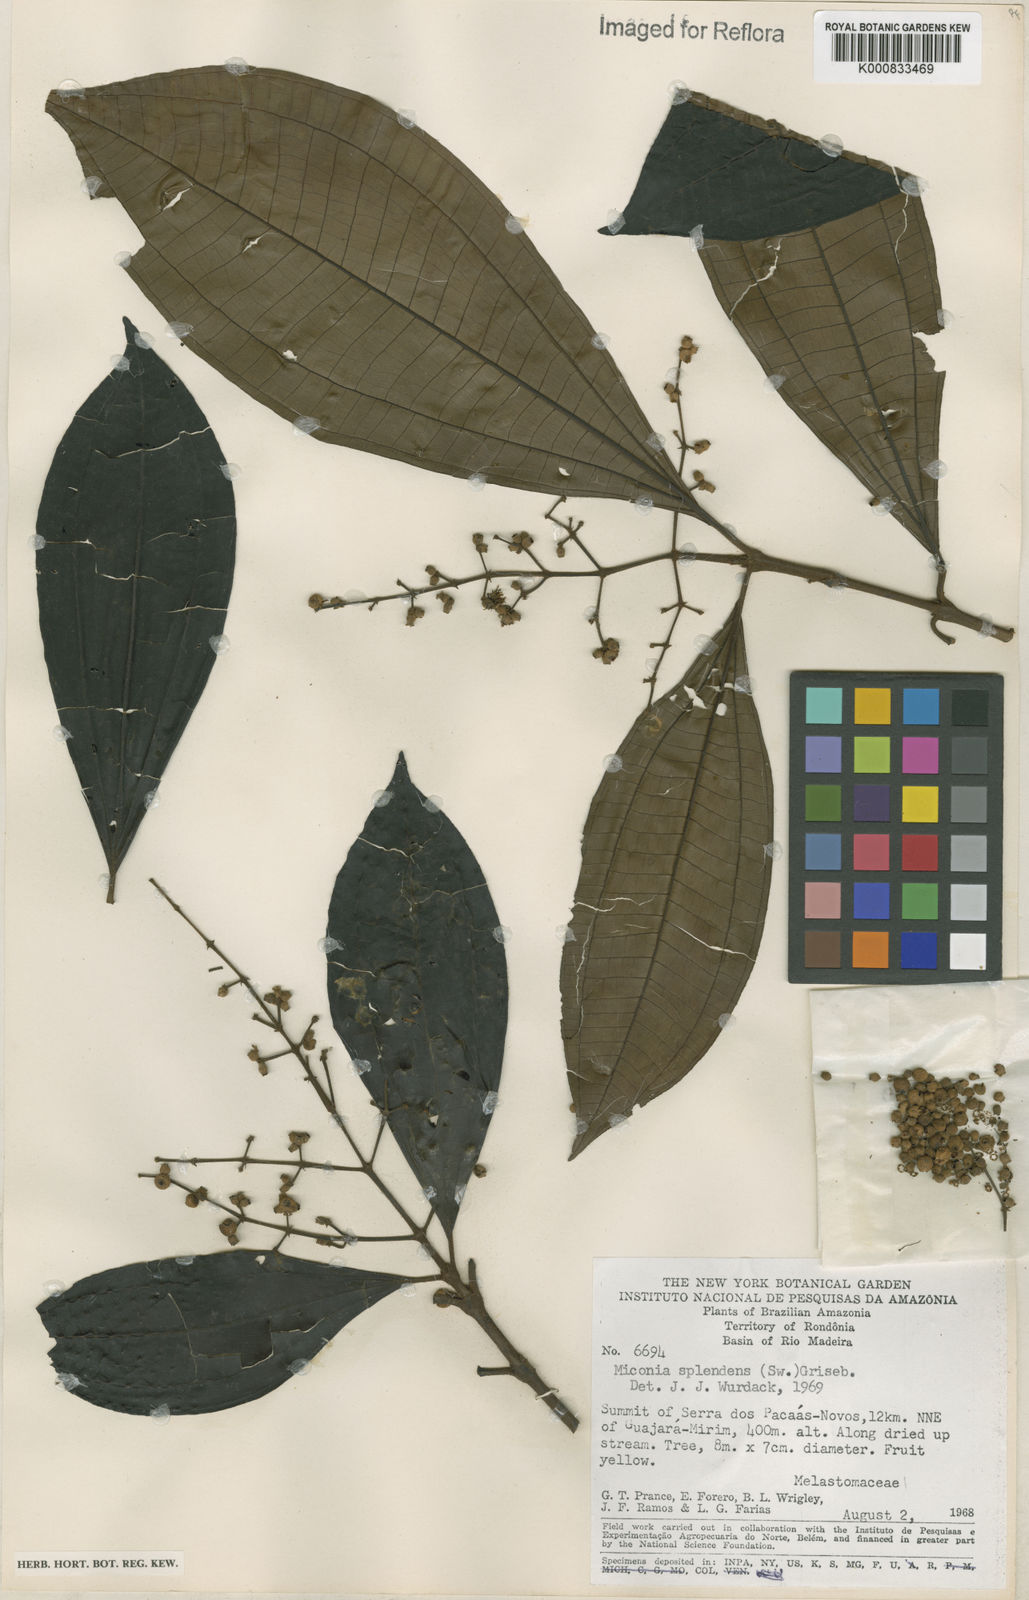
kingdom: Plantae
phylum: Tracheophyta
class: Magnoliopsida
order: Myrtales
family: Melastomataceae
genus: Miconia
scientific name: Miconia splendens
